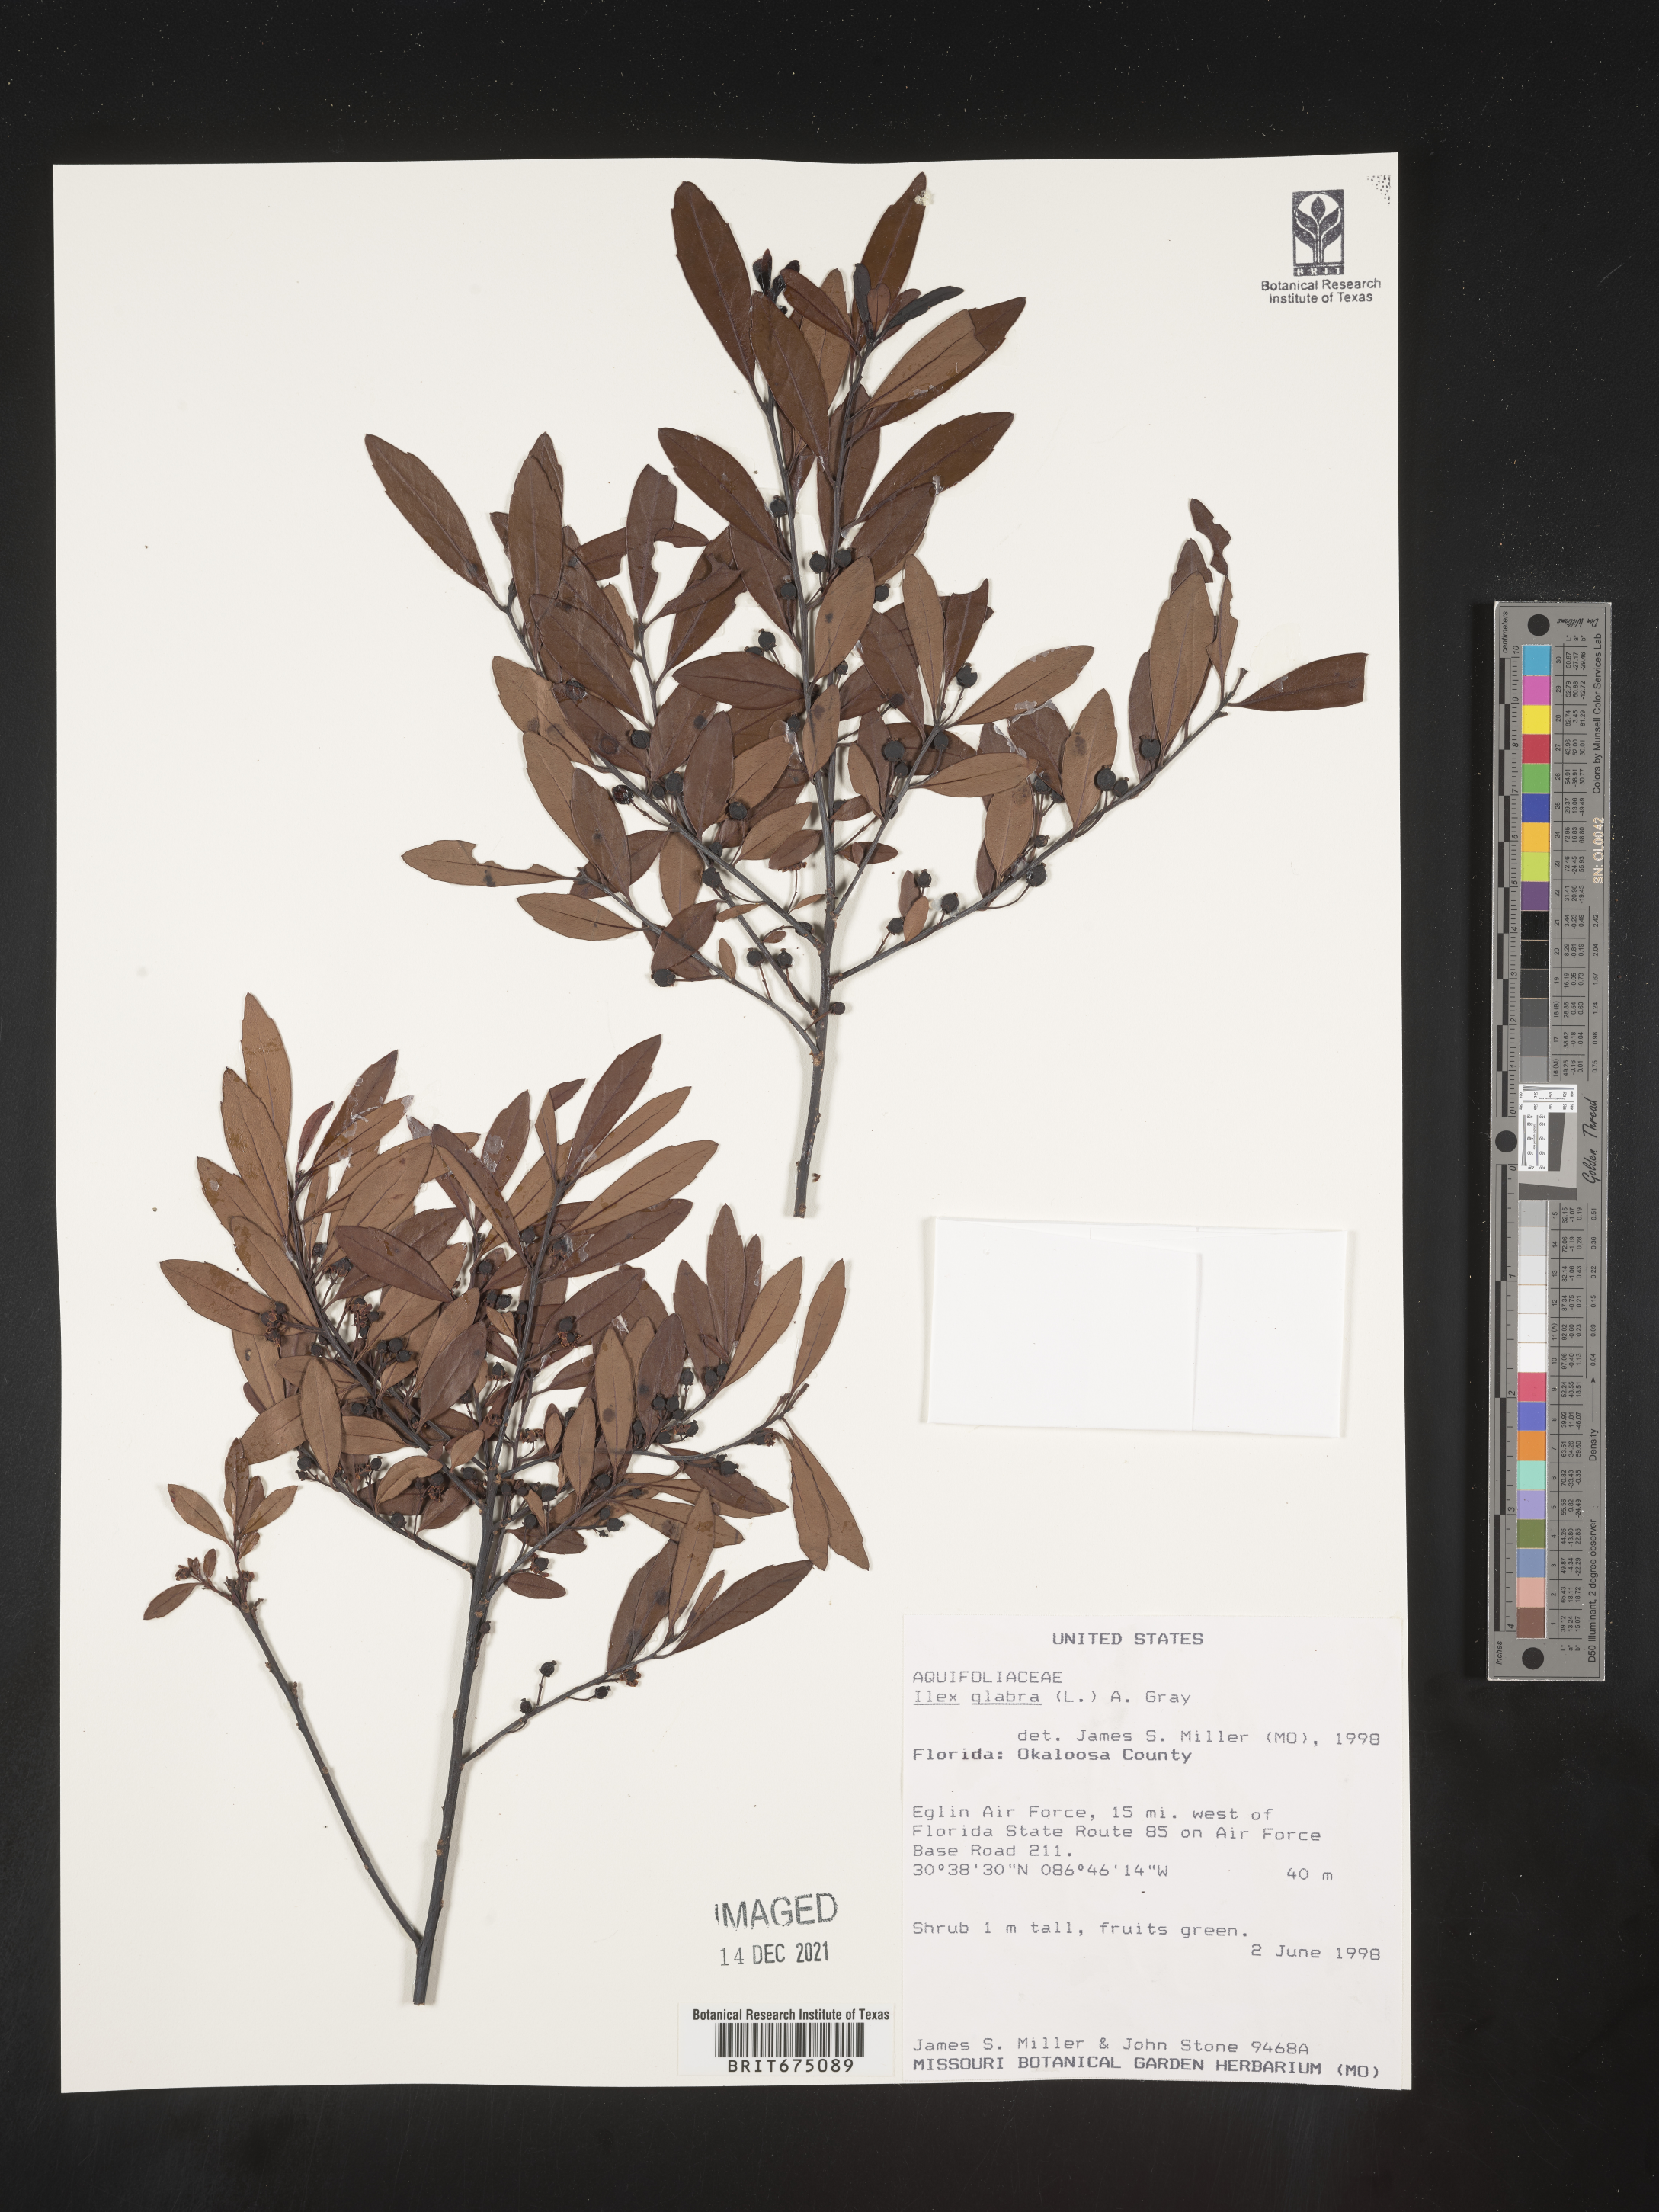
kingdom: Plantae
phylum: Tracheophyta
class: Magnoliopsida
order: Aquifoliales
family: Aquifoliaceae
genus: Ilex
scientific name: Ilex glabra
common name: Bitter gallberry
